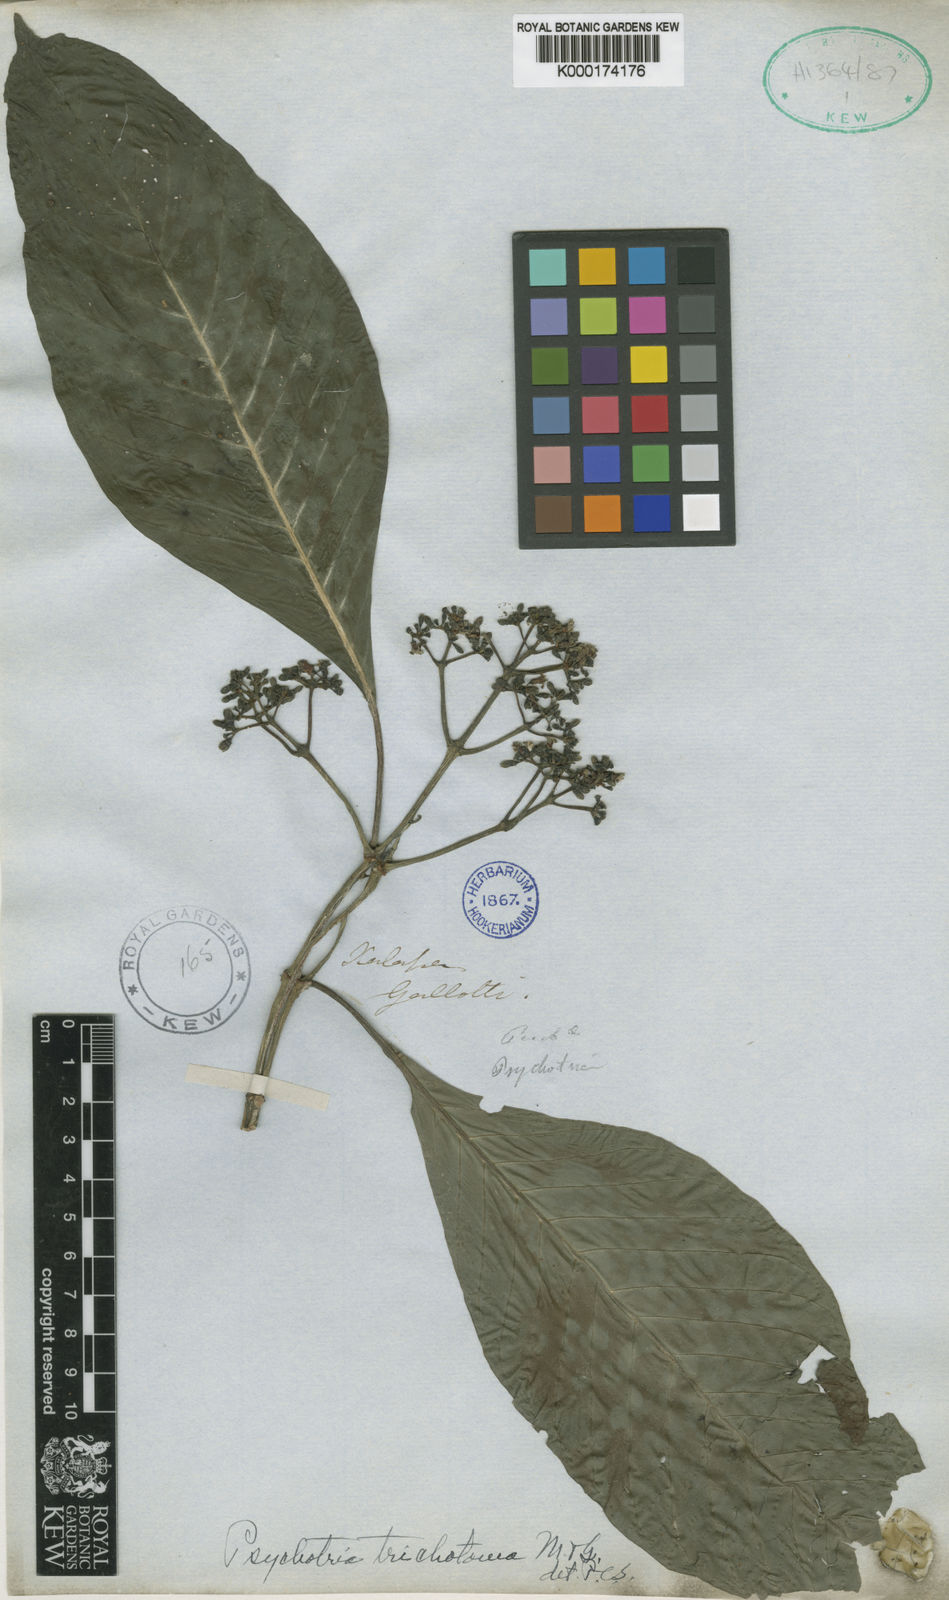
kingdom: Plantae
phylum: Tracheophyta
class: Magnoliopsida
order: Gentianales
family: Rubiaceae
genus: Psychotria
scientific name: Psychotria trichotoma
